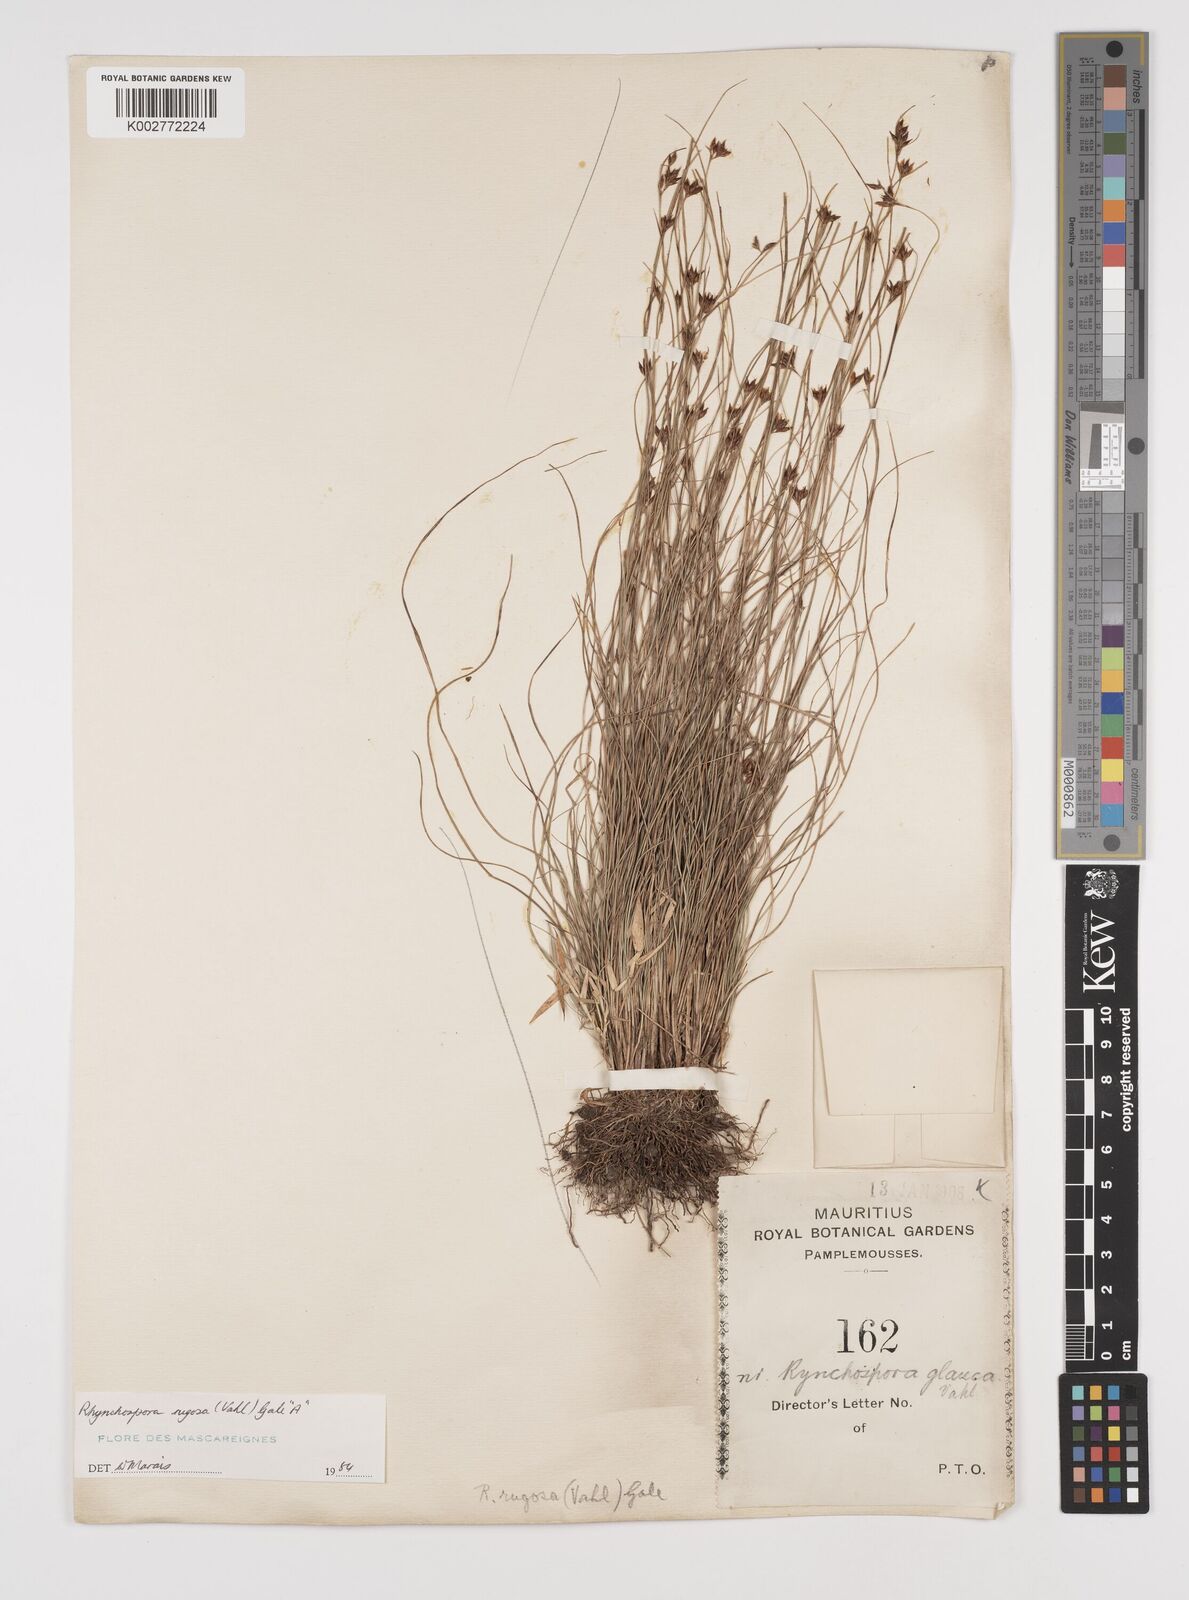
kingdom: Plantae
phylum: Tracheophyta
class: Liliopsida
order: Poales
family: Cyperaceae
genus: Rhynchospora
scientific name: Rhynchospora rugosa
